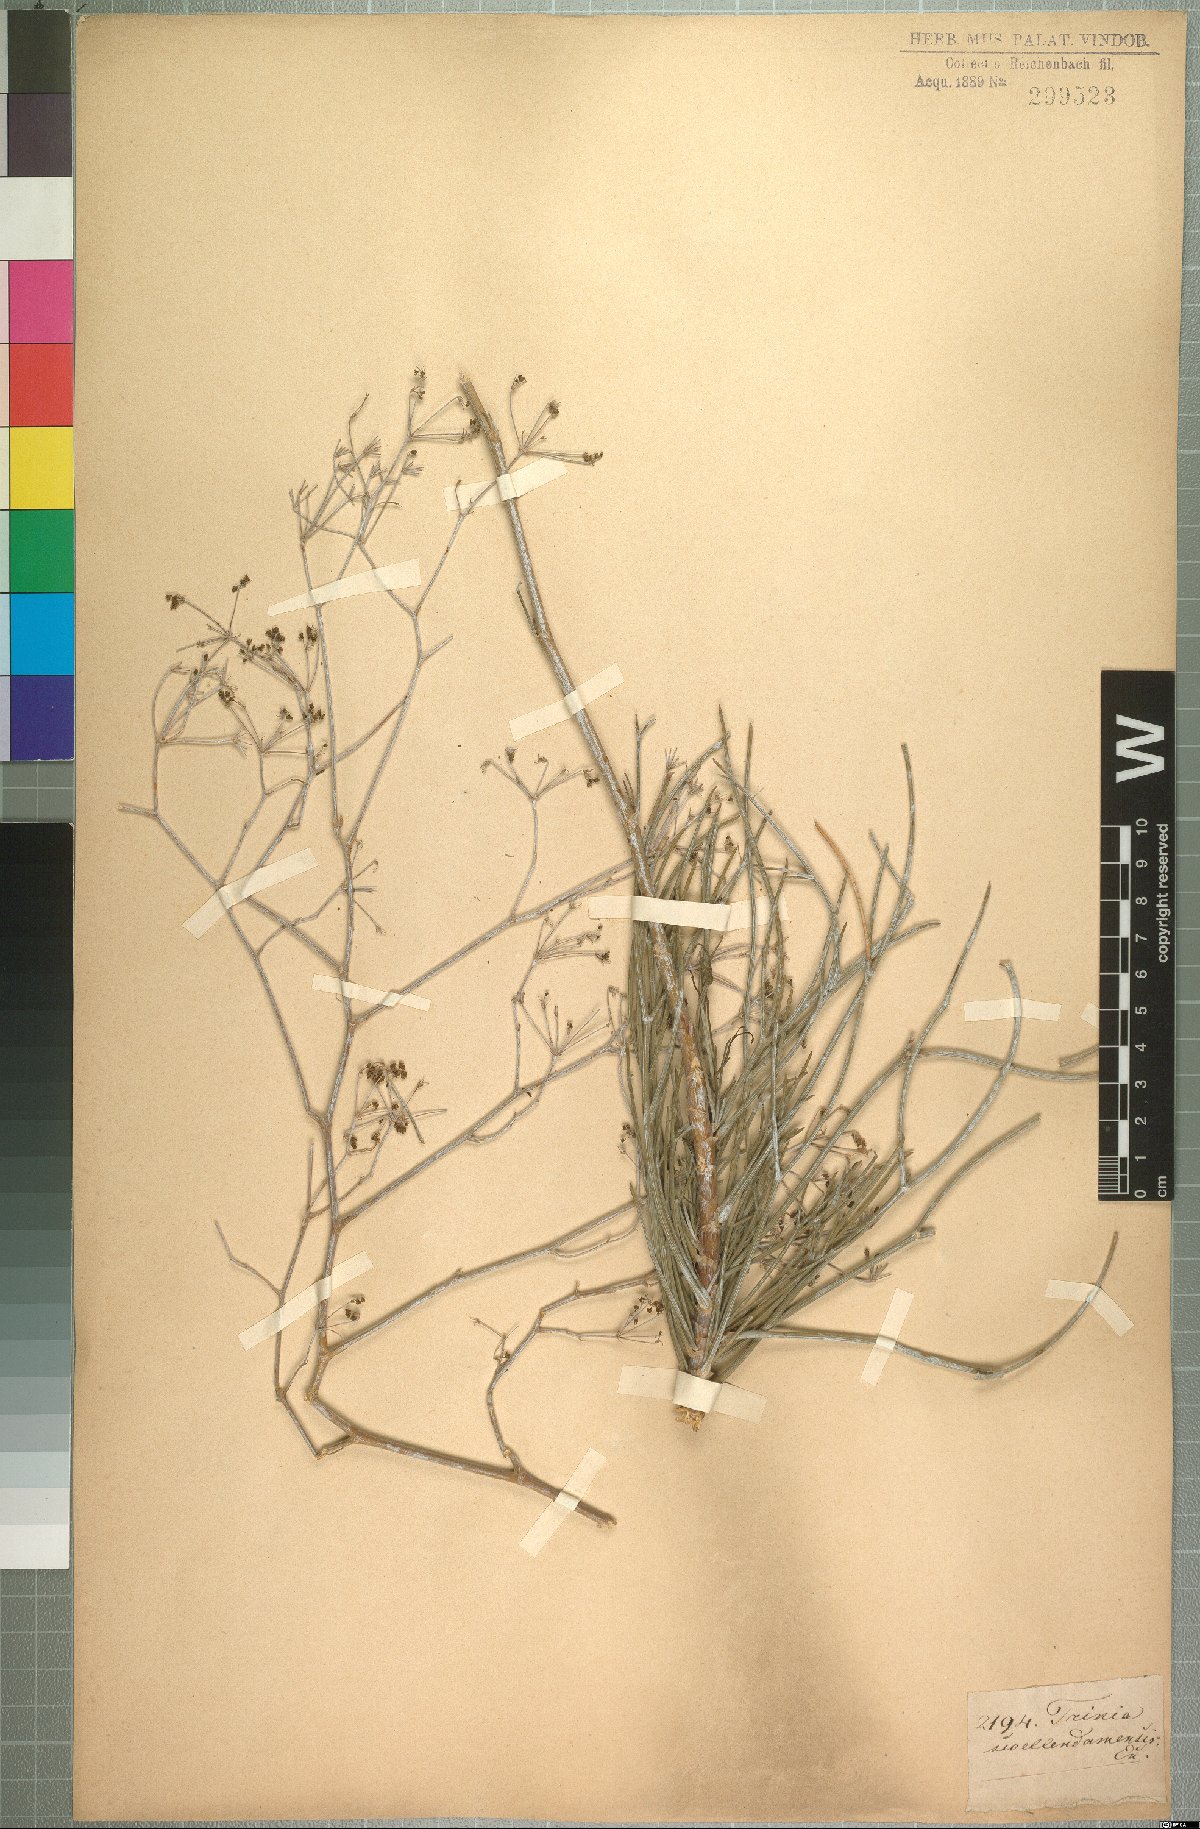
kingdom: Plantae
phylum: Tracheophyta
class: Magnoliopsida
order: Apiales
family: Apiaceae
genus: Anginon
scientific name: Anginon swellendamense
